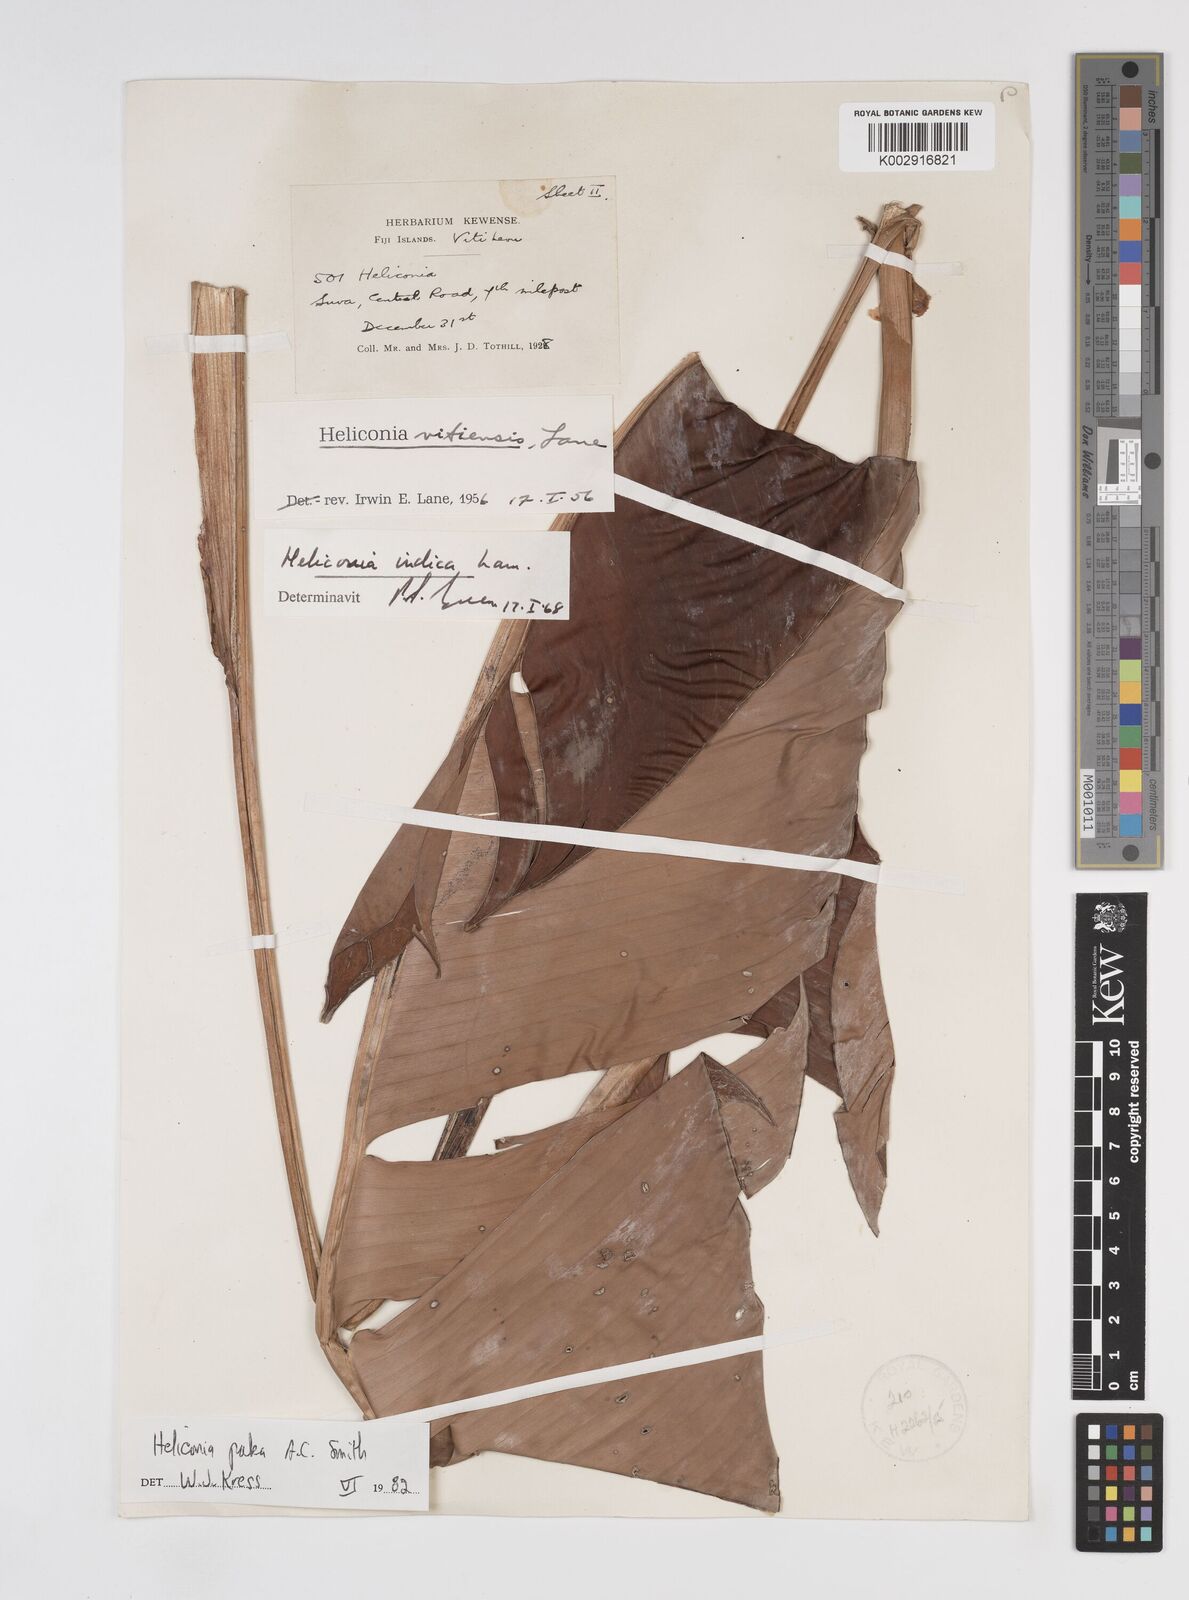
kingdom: Plantae
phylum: Tracheophyta
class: Liliopsida
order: Zingiberales
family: Heliconiaceae
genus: Heliconia
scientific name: Heliconia paka
